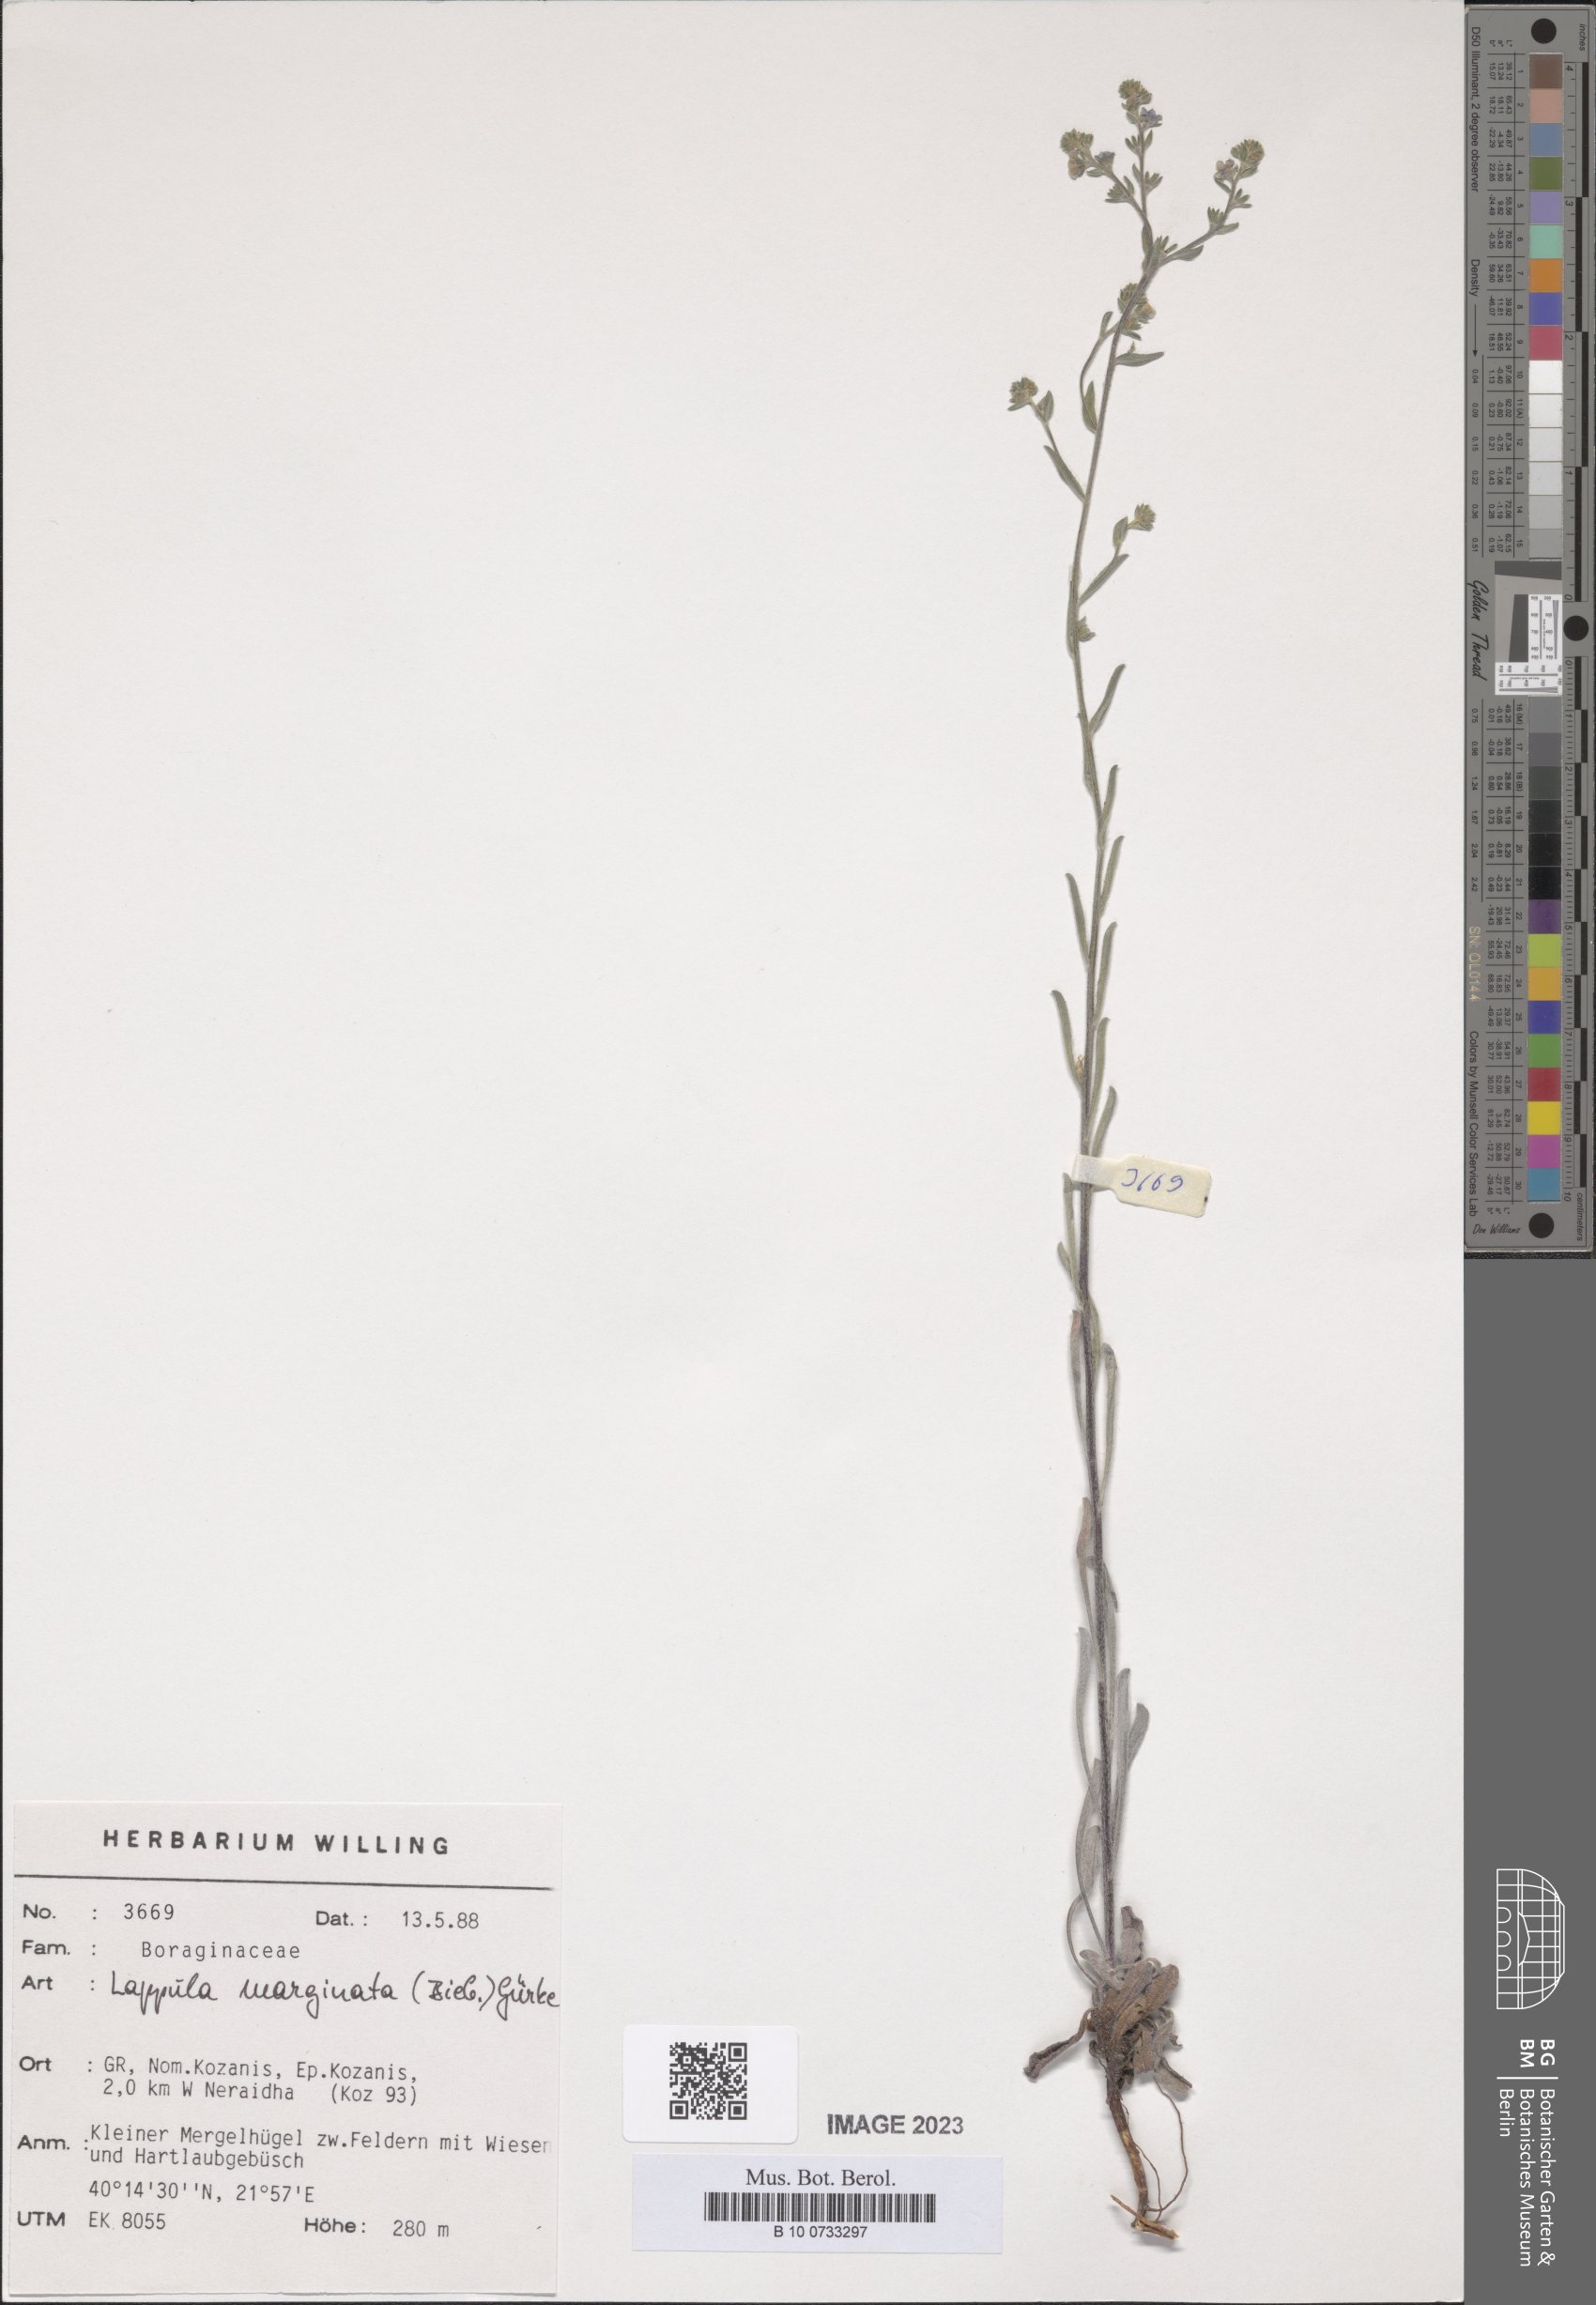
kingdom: Plantae
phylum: Tracheophyta
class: Magnoliopsida
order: Boraginales
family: Boraginaceae
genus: Lappula
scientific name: Lappula marginata
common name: Margined stickseed
